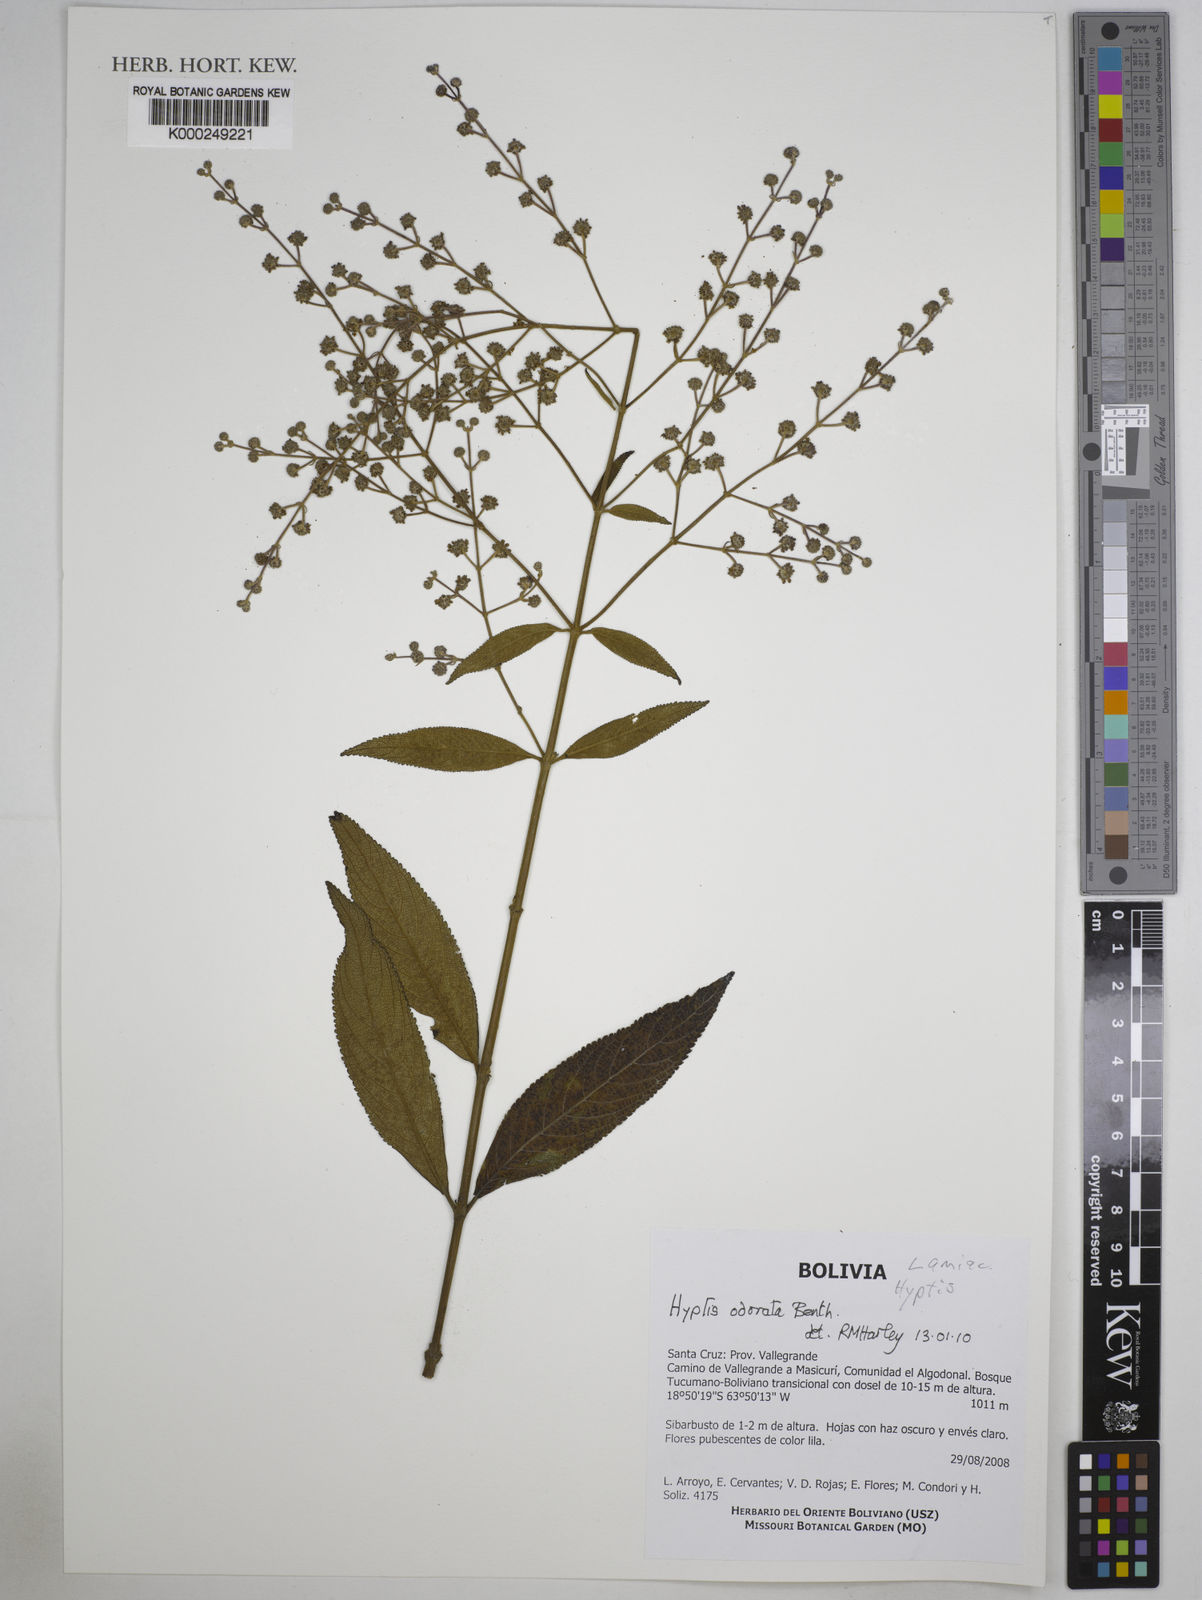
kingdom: Plantae
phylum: Tracheophyta
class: Magnoliopsida
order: Lamiales
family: Lamiaceae
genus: Hyptis
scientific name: Hyptis odorata
